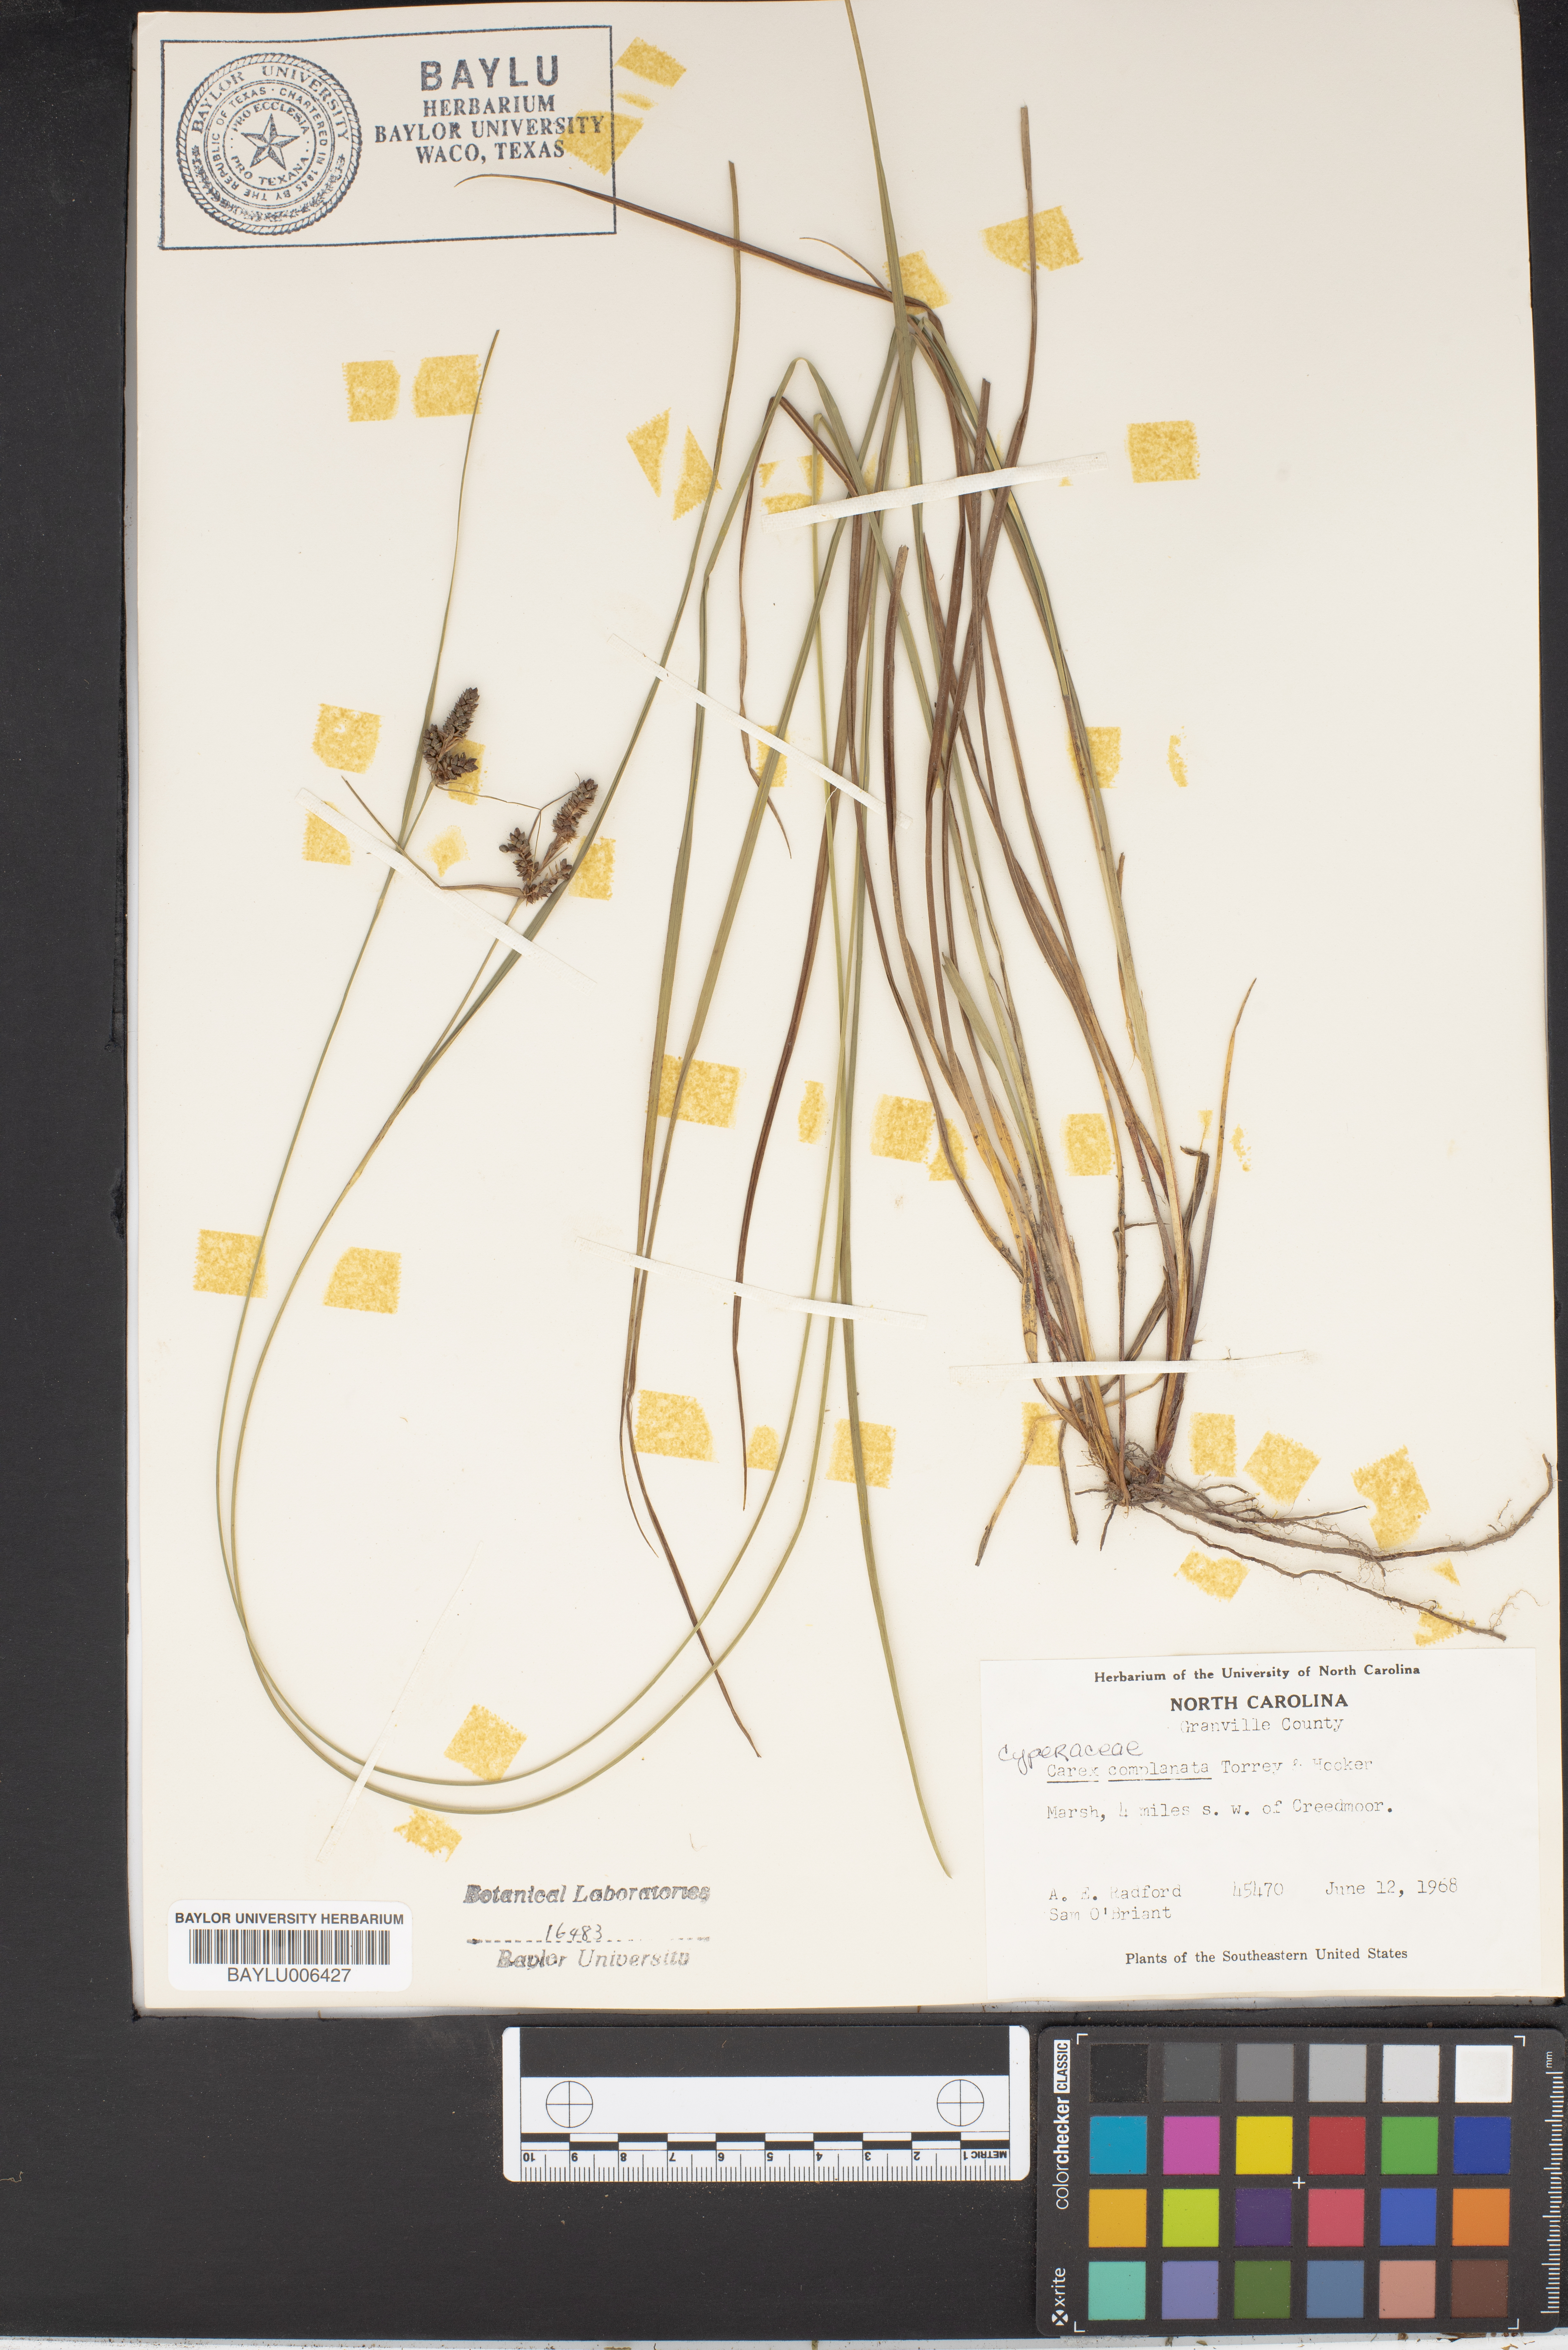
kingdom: Plantae
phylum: Tracheophyta
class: Liliopsida
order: Poales
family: Cyperaceae
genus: Carex
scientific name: Carex complanata
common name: Hirsute sedge
